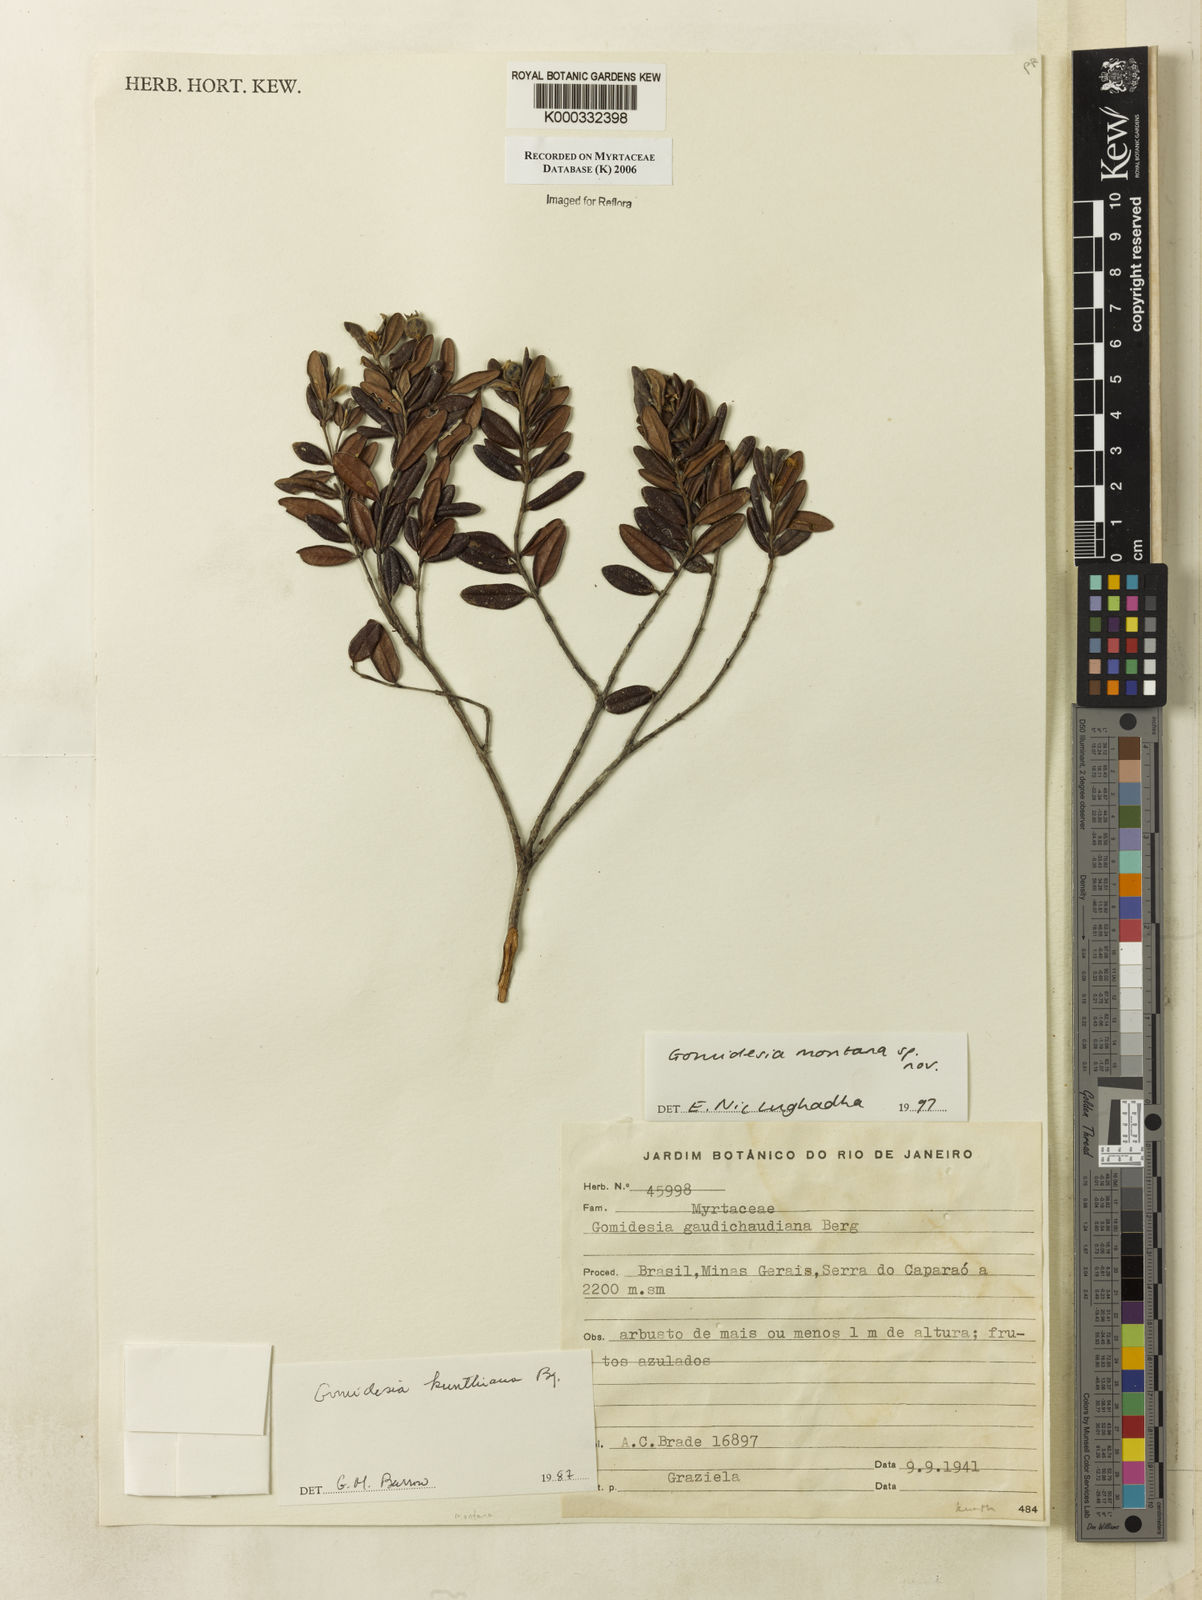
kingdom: Plantae
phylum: Tracheophyta
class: Magnoliopsida
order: Myrtales
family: Myrtaceae
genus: Myrcia
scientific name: Myrcia
